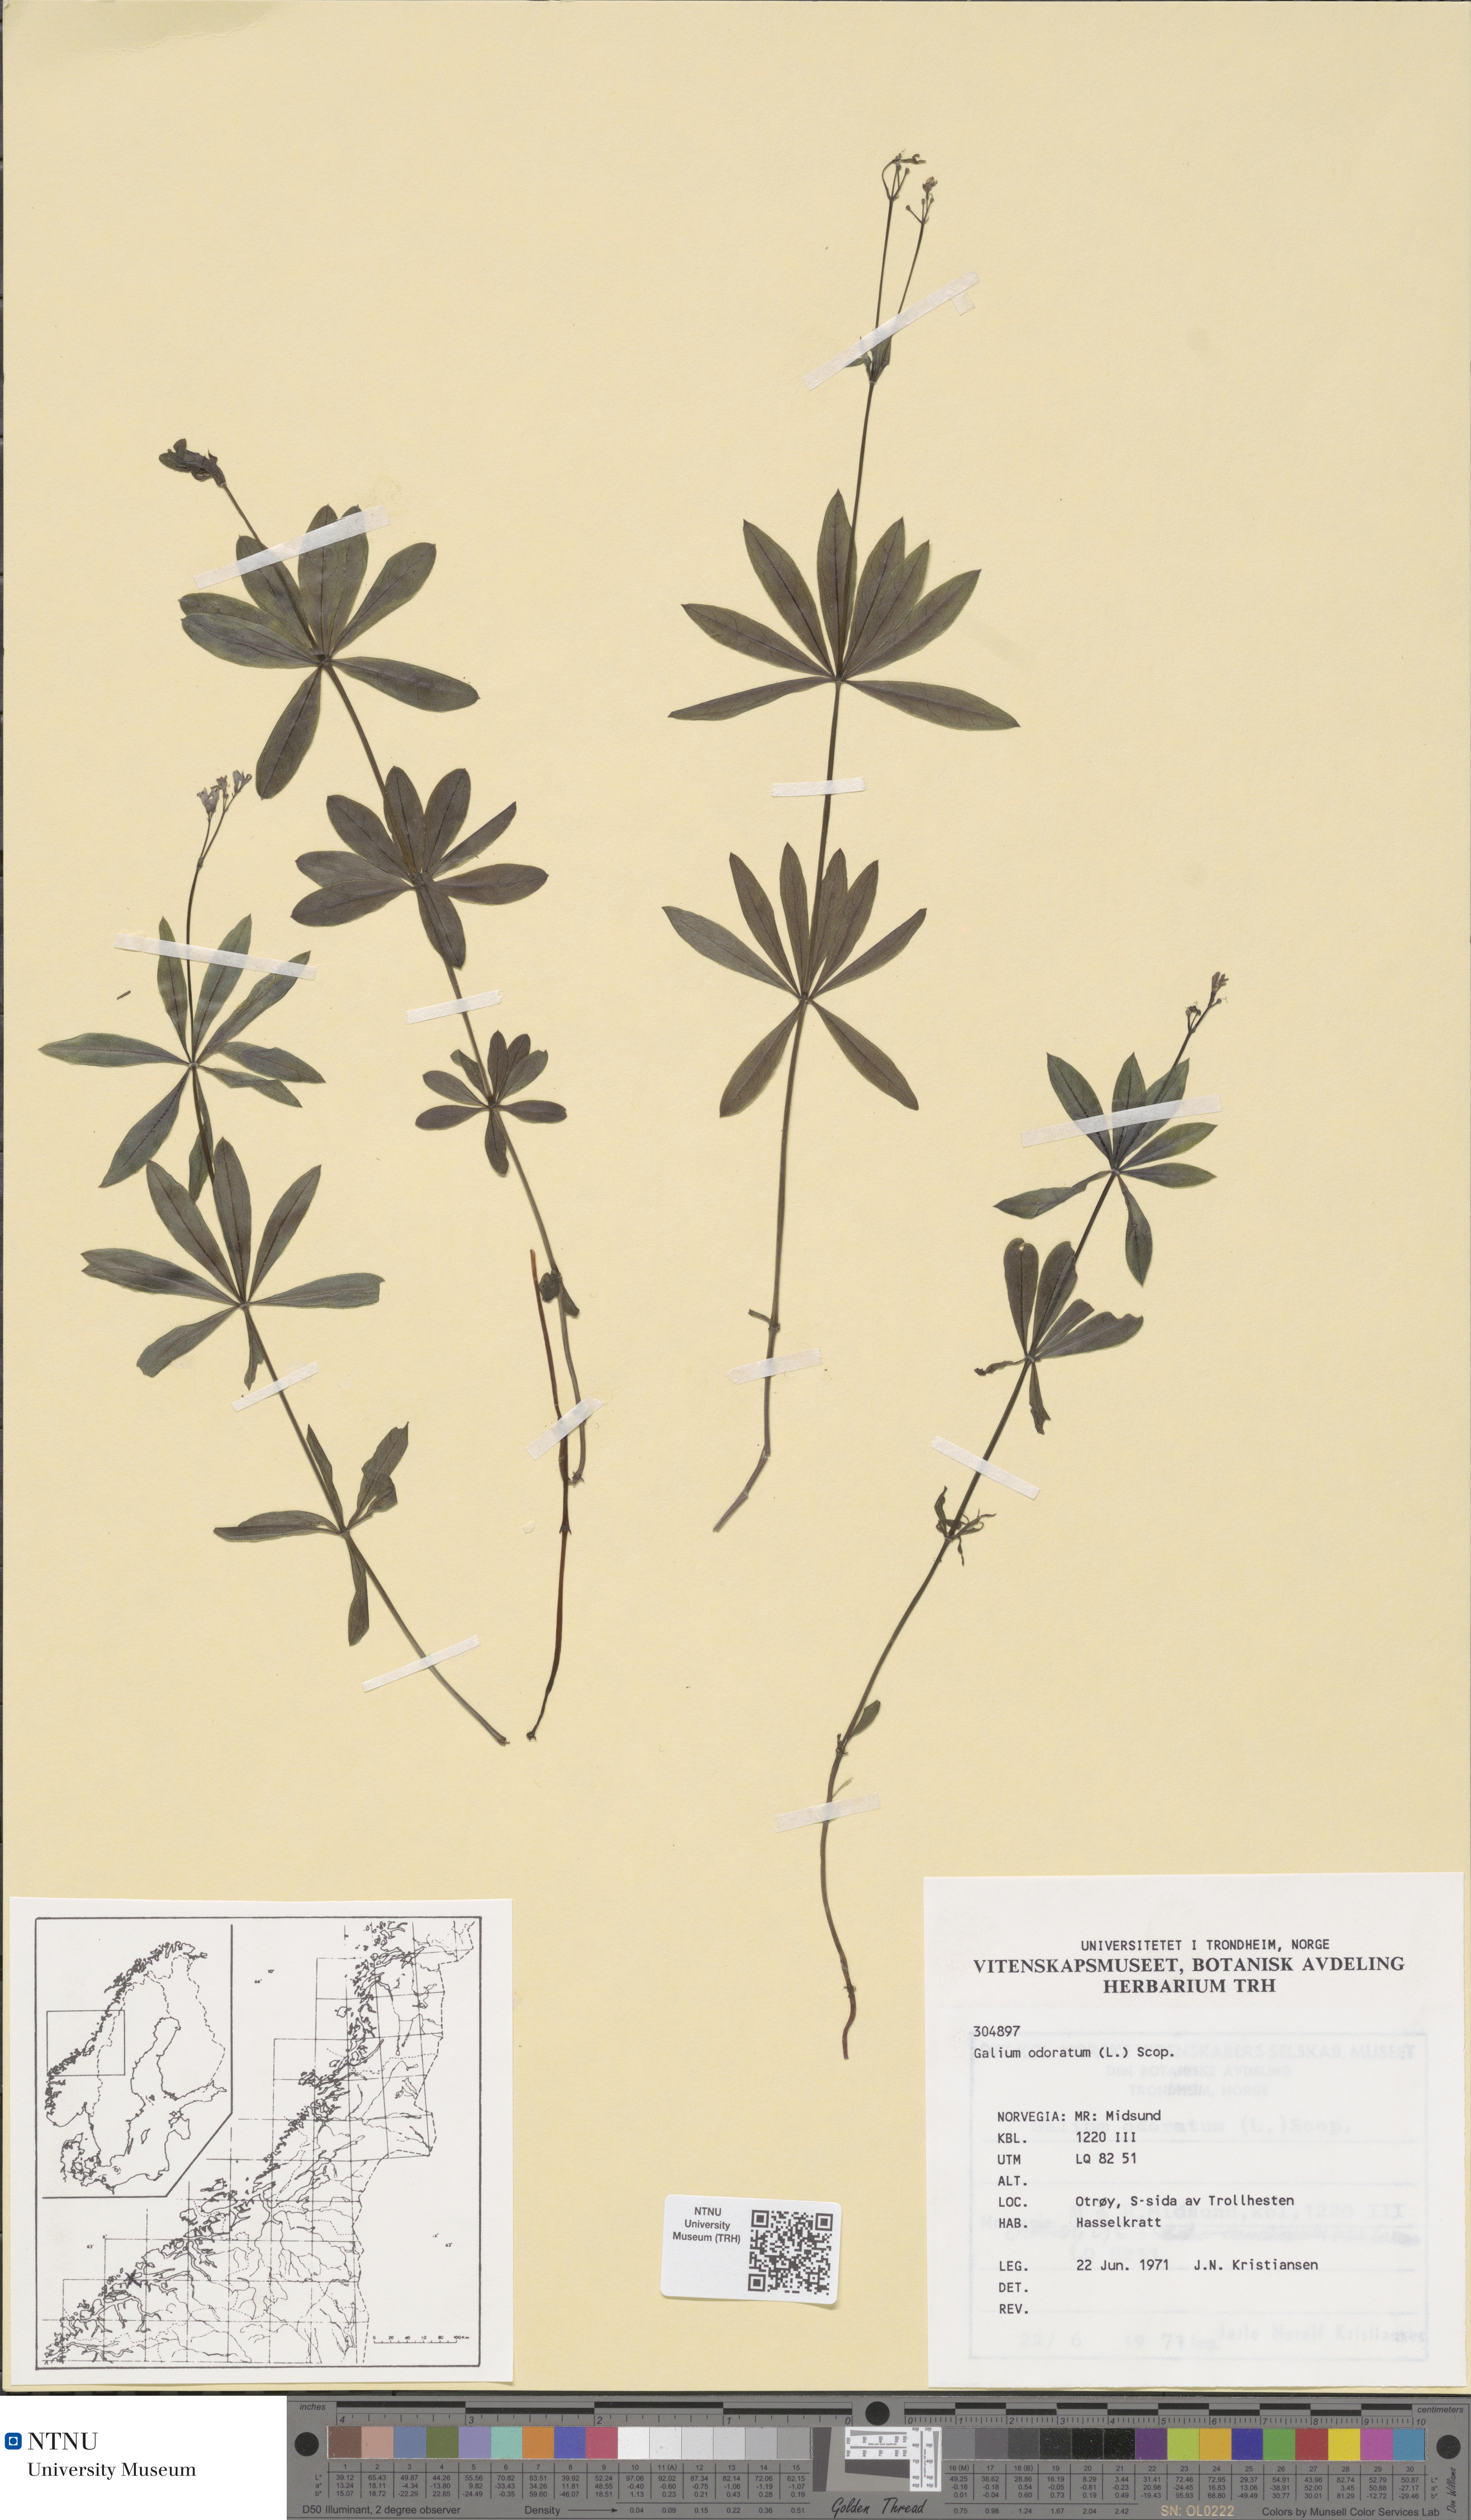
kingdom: Plantae
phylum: Tracheophyta
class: Magnoliopsida
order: Gentianales
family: Rubiaceae
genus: Galium
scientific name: Galium odoratum
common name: Sweet woodruff
